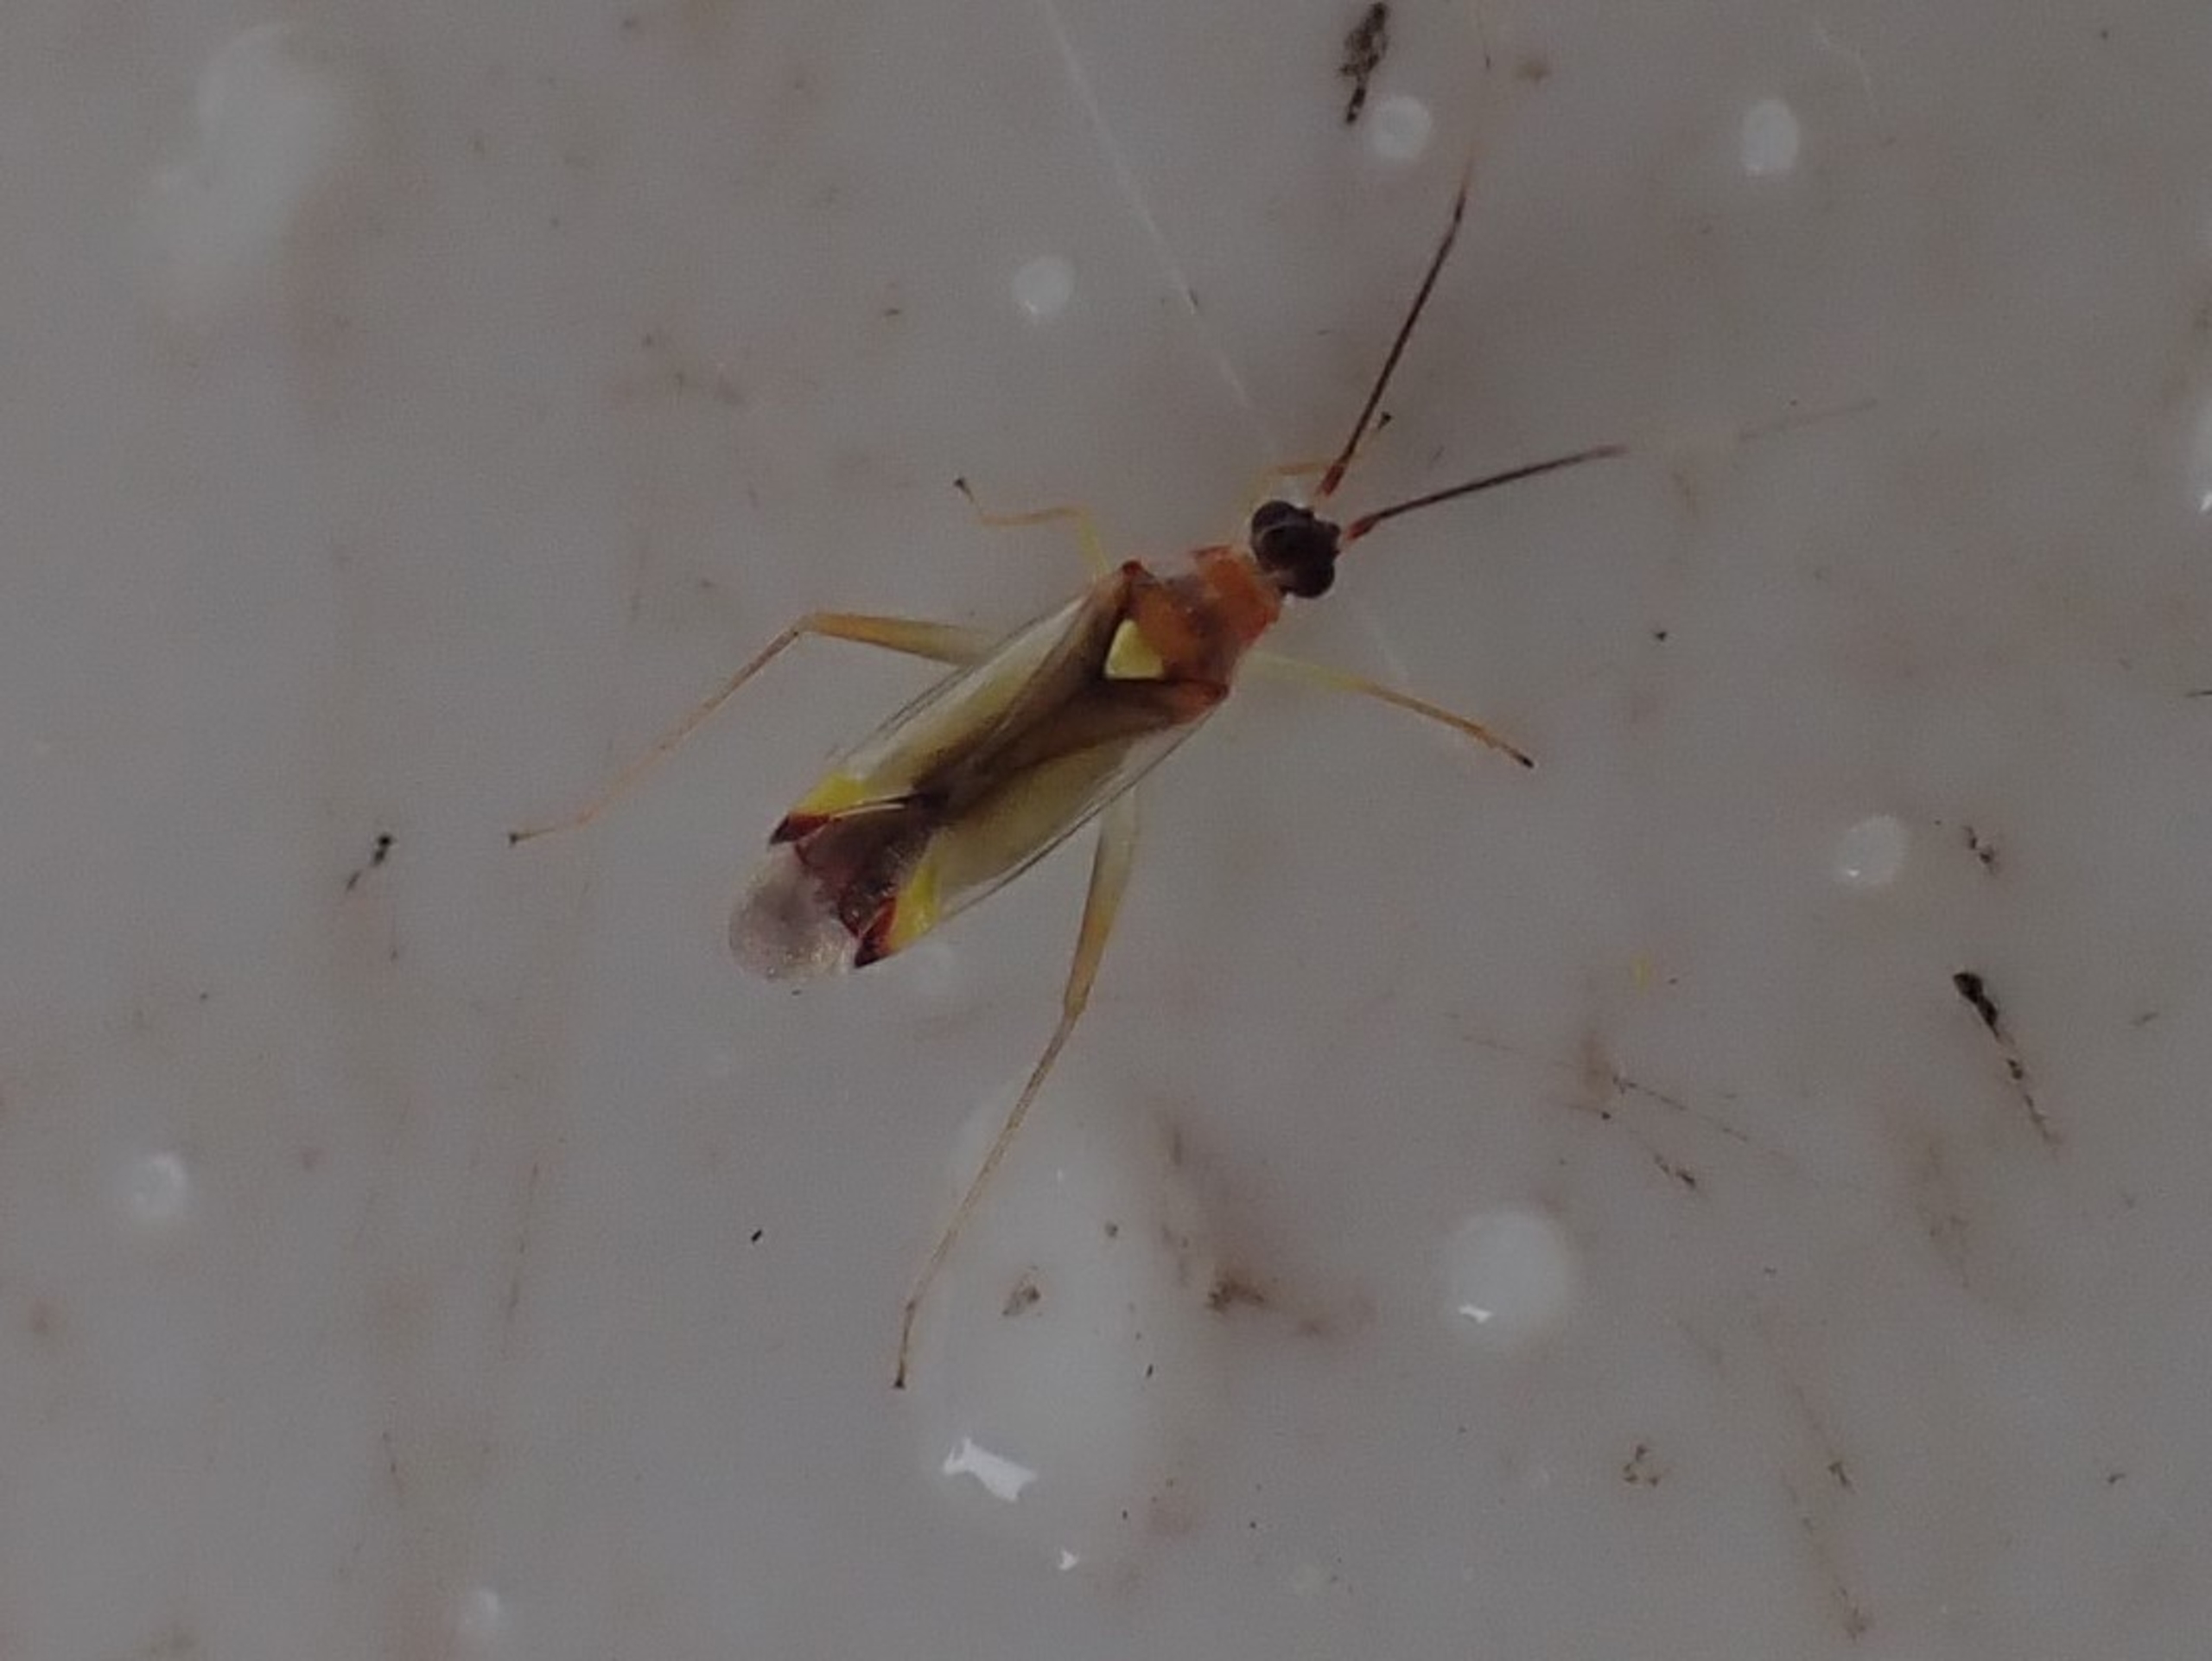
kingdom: Animalia
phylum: Arthropoda
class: Insecta
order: Hemiptera
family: Miridae
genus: Campyloneura
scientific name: Campyloneura virgula
